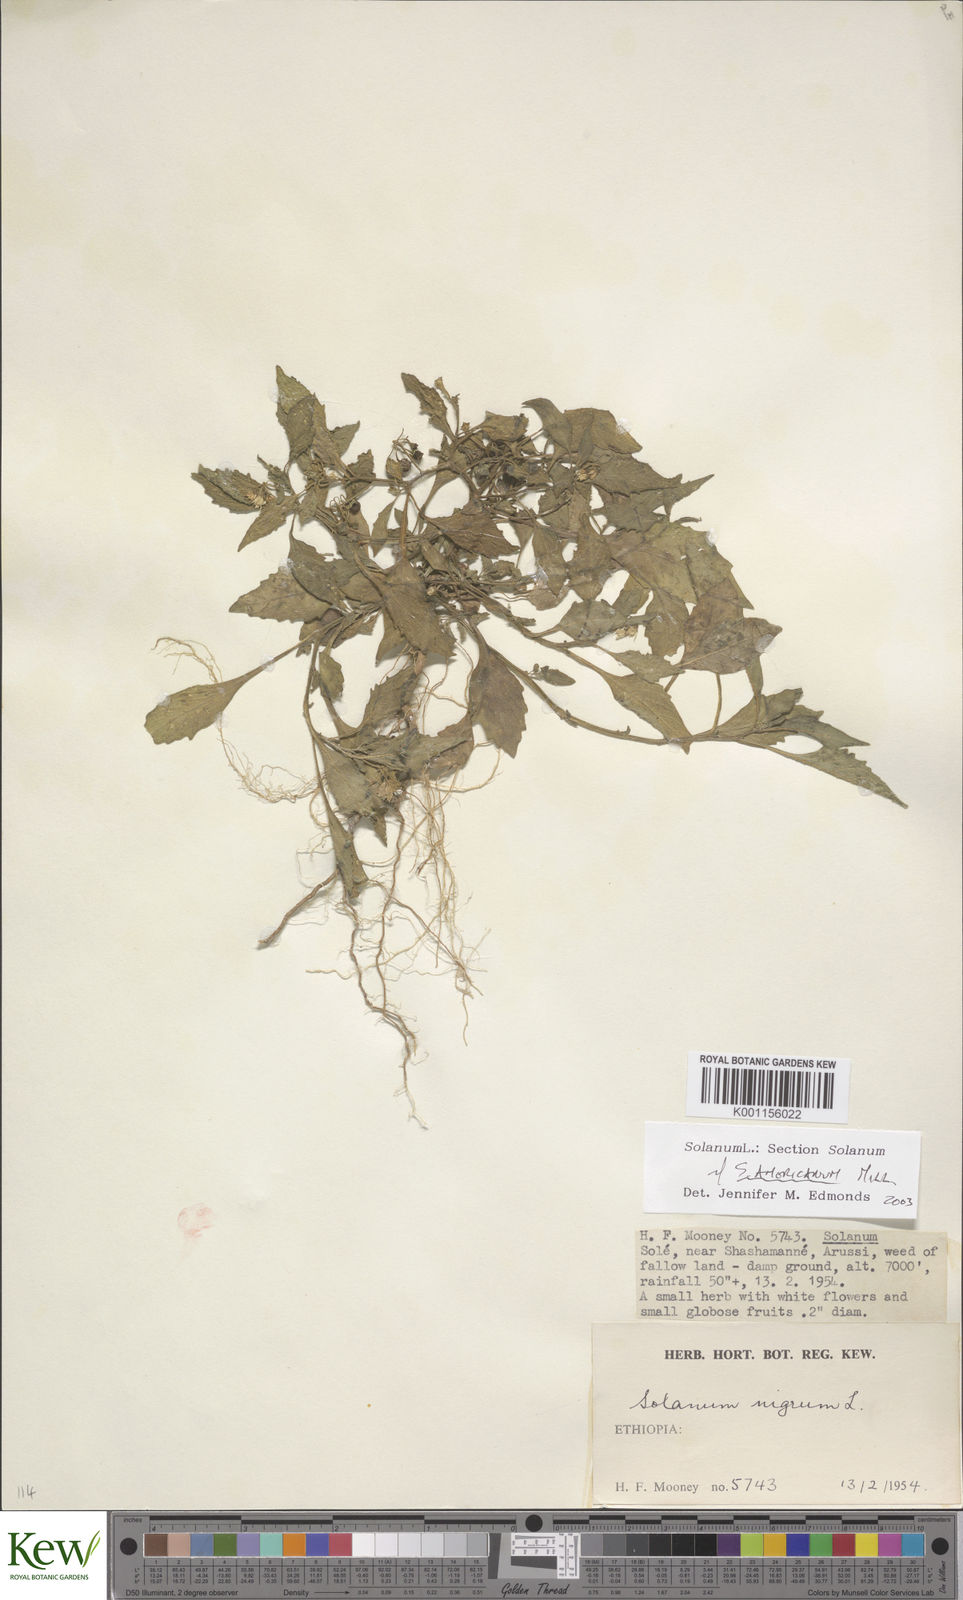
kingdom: Plantae
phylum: Tracheophyta
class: Magnoliopsida
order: Solanales
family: Solanaceae
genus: Solanum
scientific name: Solanum villosum
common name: Red nightshade
